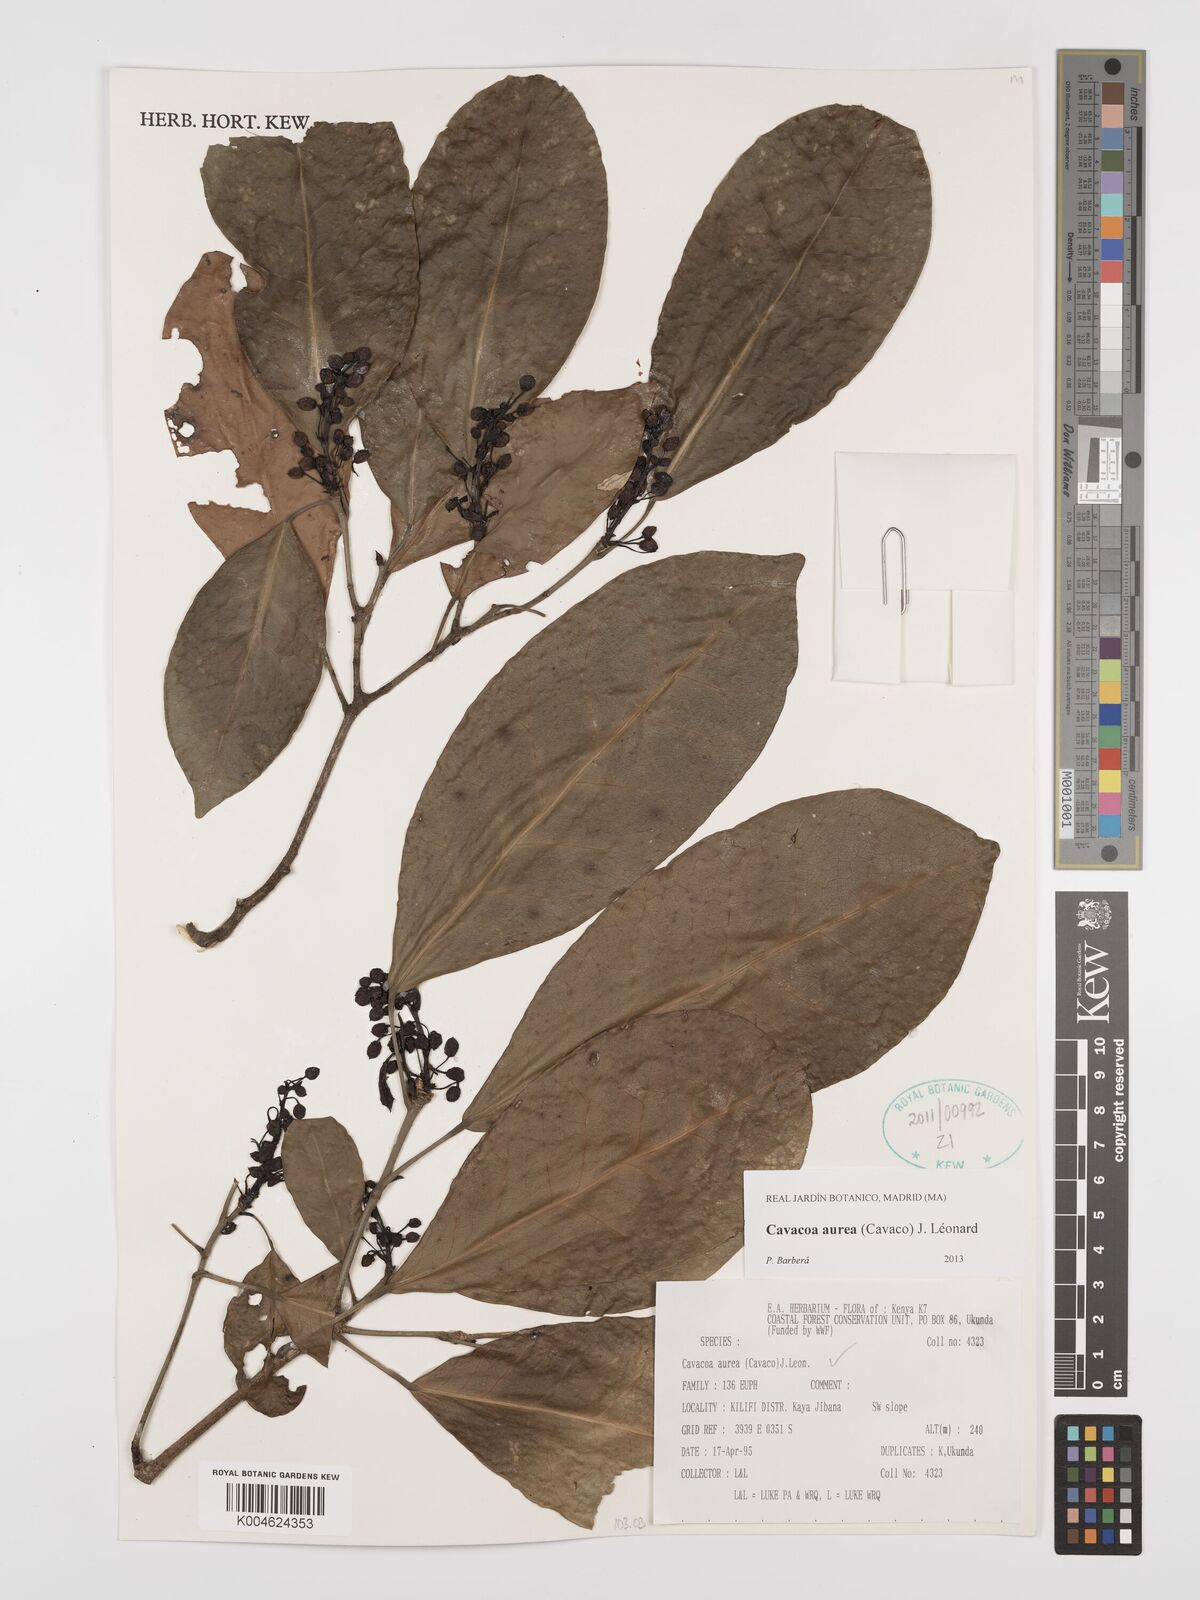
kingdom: Plantae
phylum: Tracheophyta
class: Magnoliopsida
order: Malpighiales
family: Euphorbiaceae
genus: Cavacoa
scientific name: Cavacoa aurea
